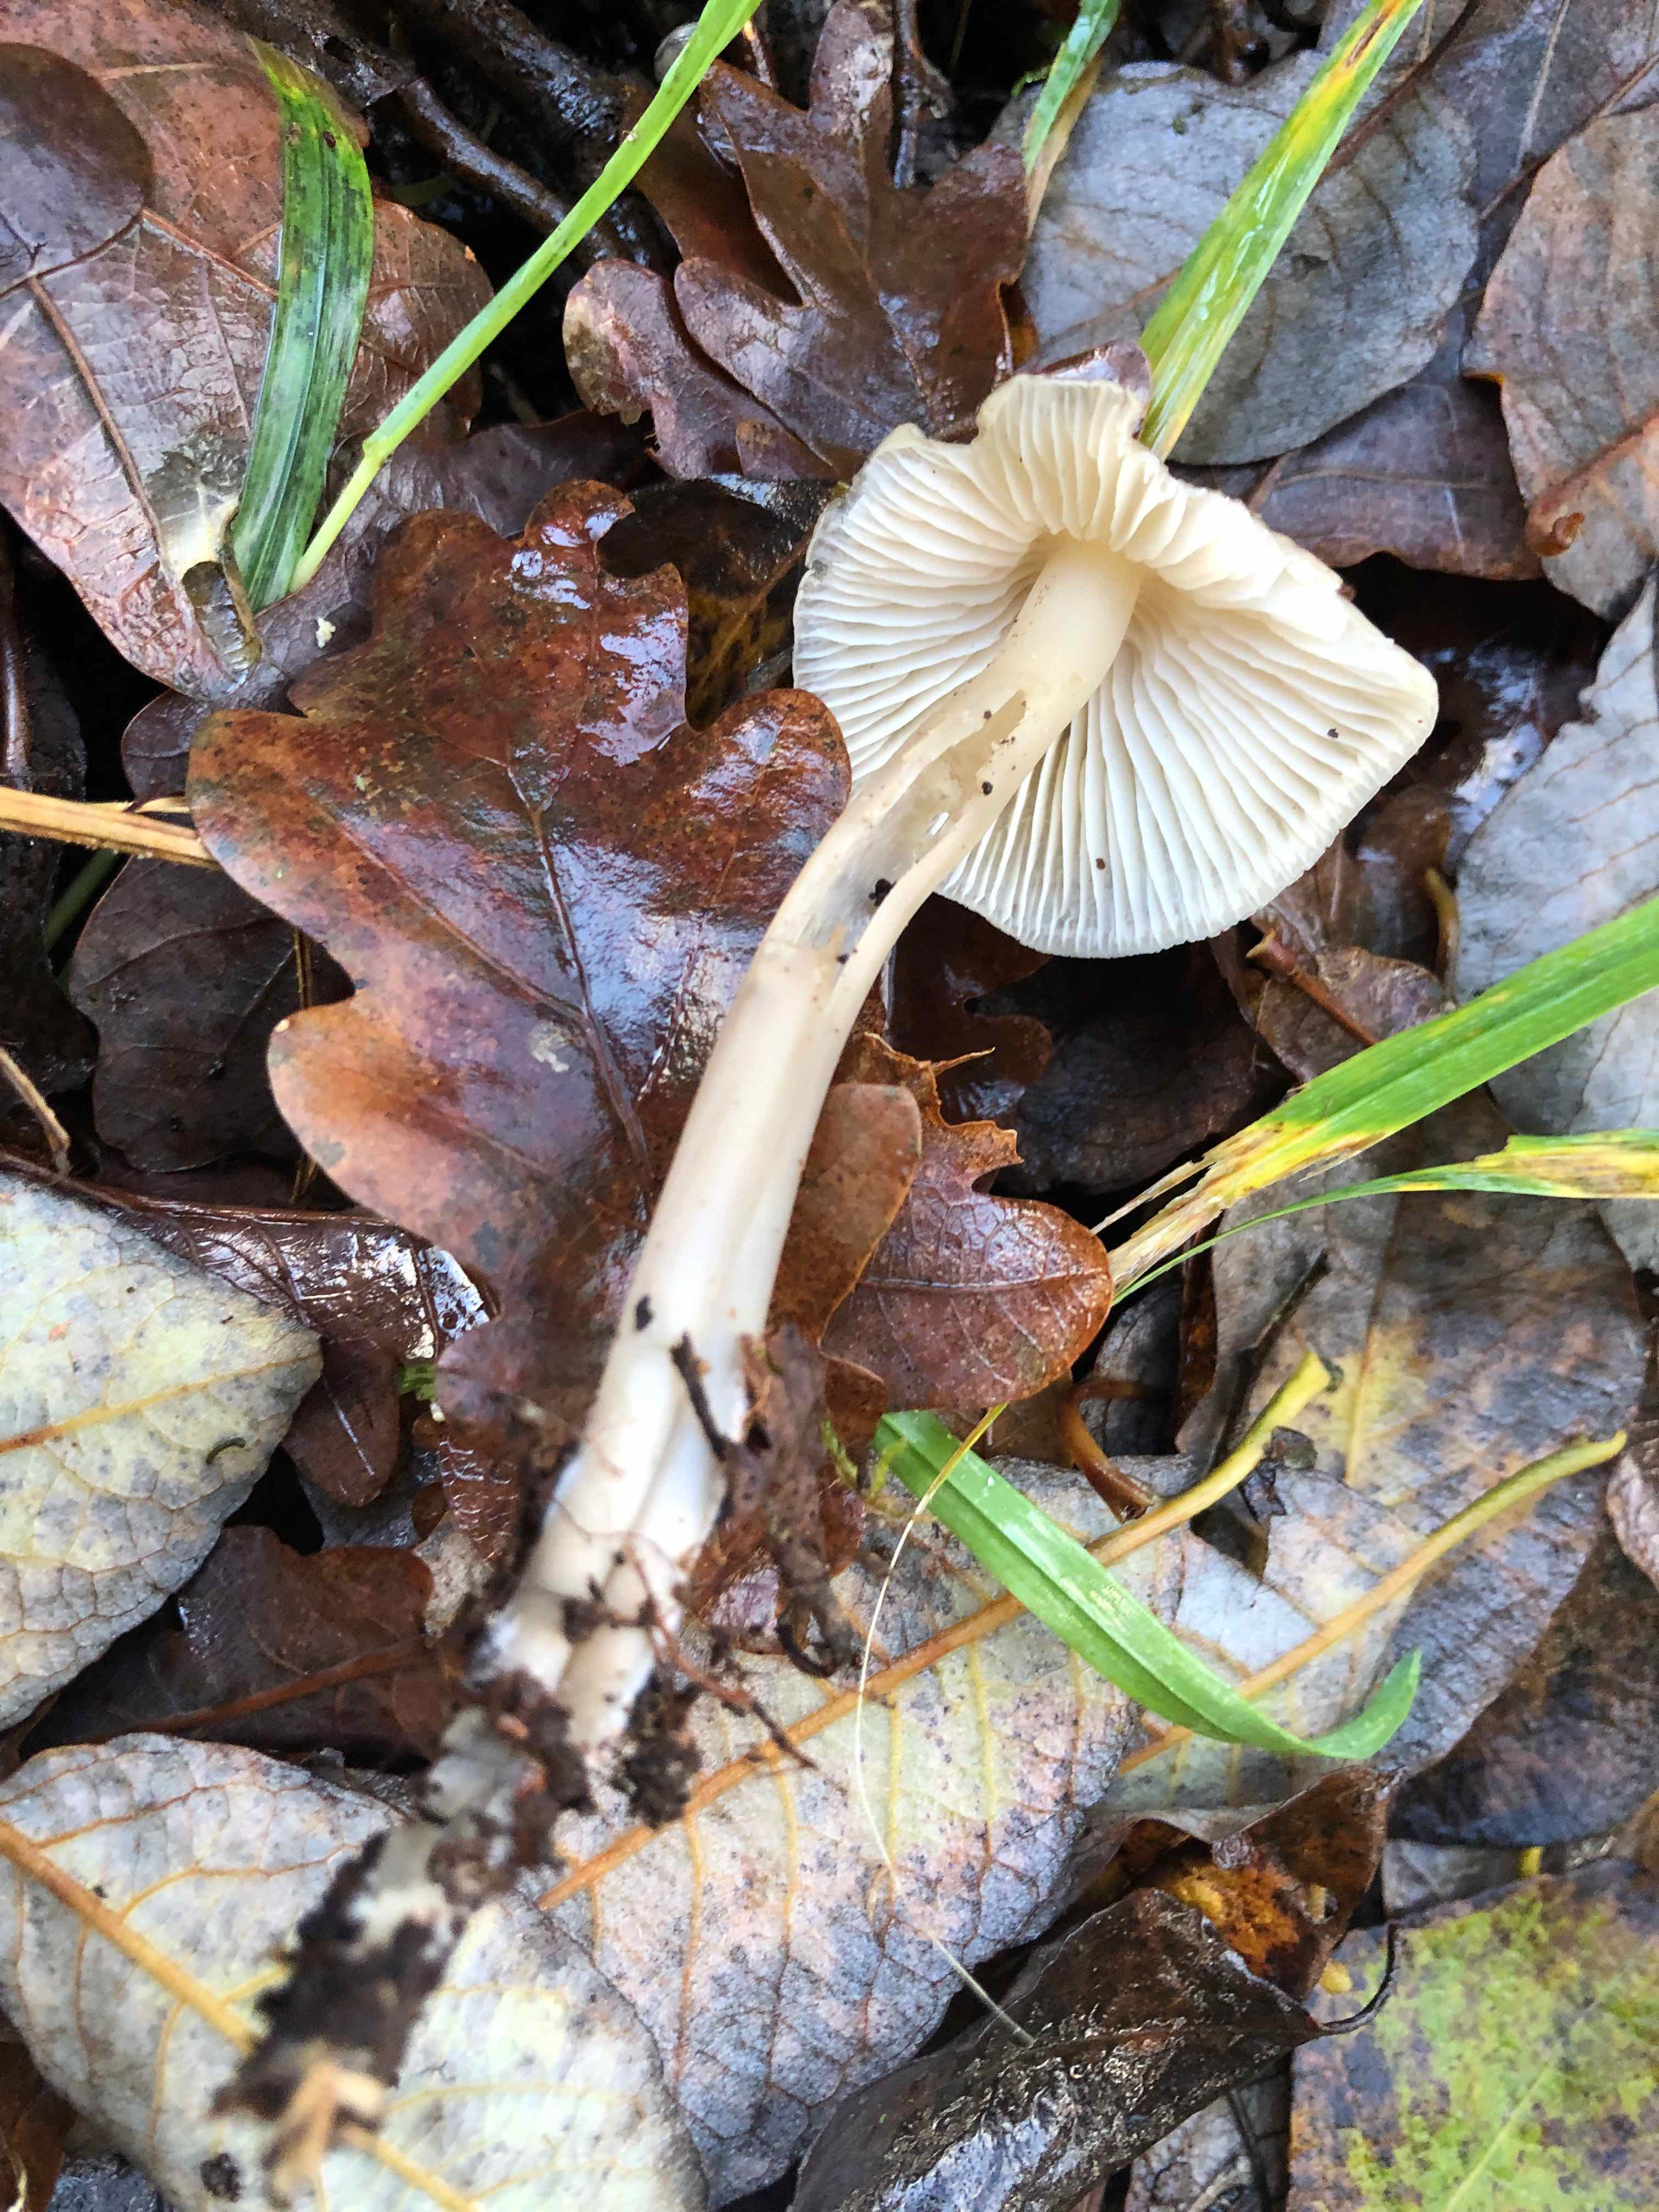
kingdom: Fungi
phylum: Basidiomycota
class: Agaricomycetes
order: Agaricales
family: Mycenaceae
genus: Mycena
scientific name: Mycena galericulata
